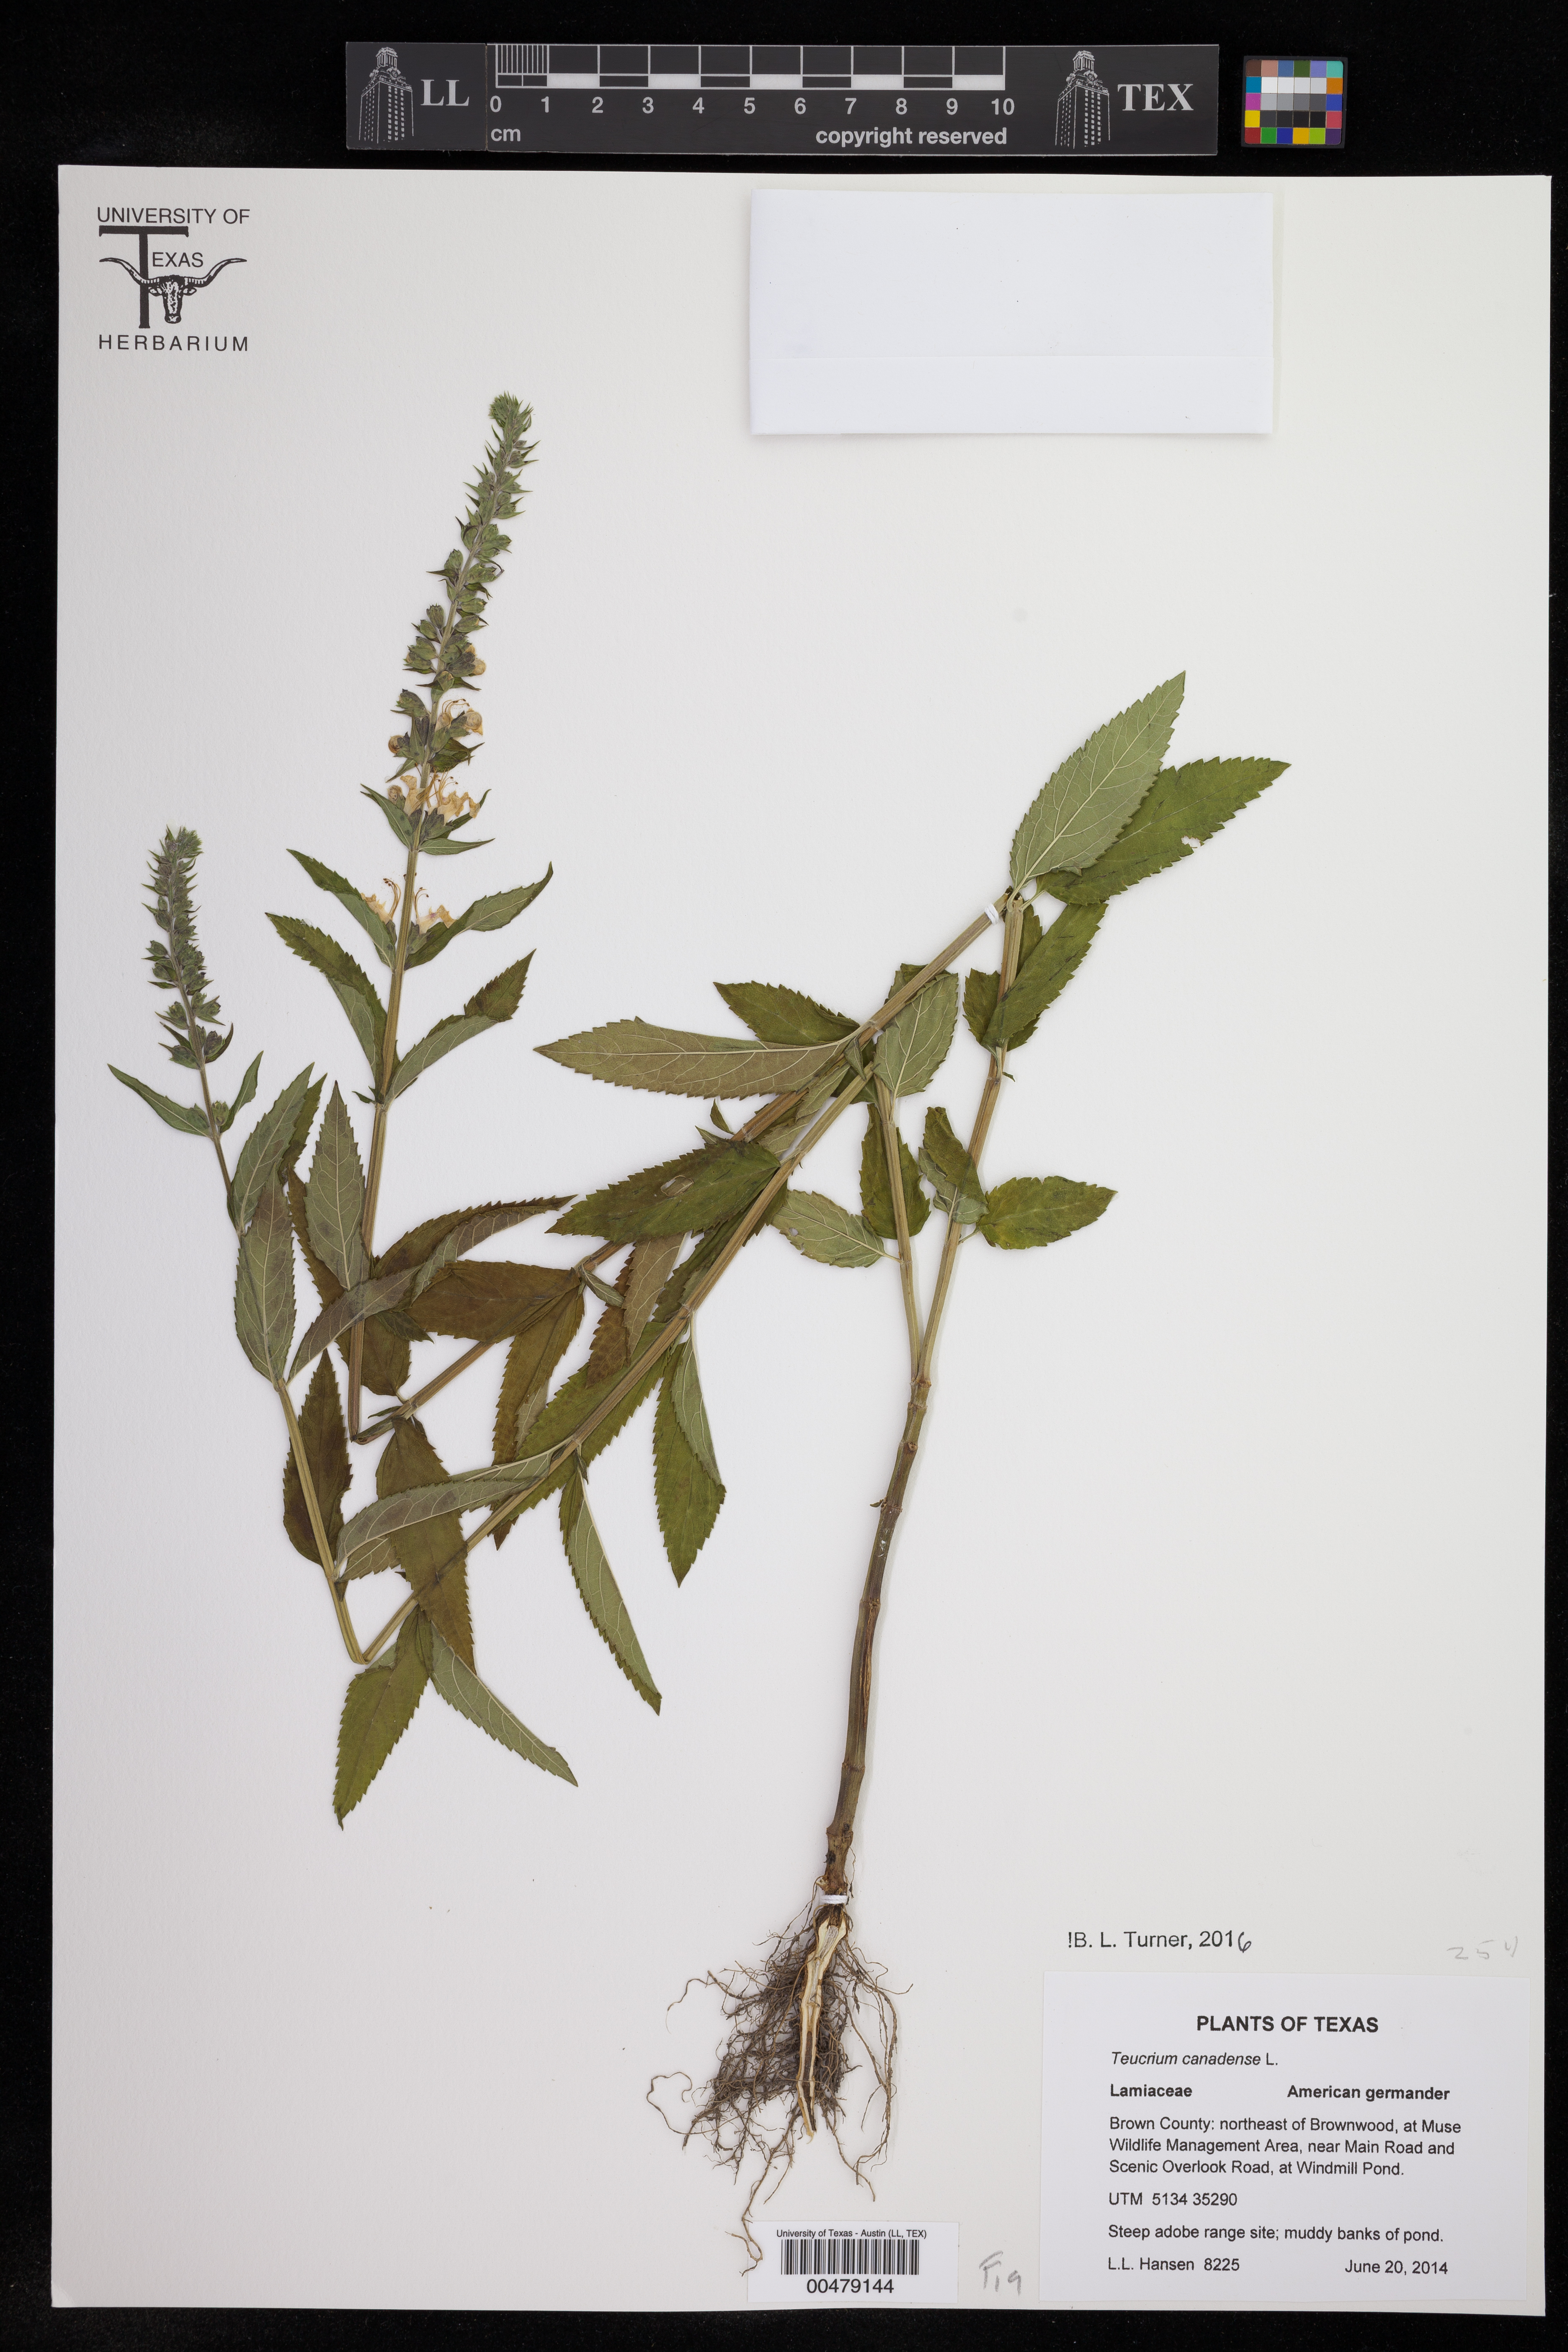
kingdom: Plantae
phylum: Tracheophyta
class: Magnoliopsida
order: Lamiales
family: Lamiaceae
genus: Teucrium
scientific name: Teucrium canadense
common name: American germander
